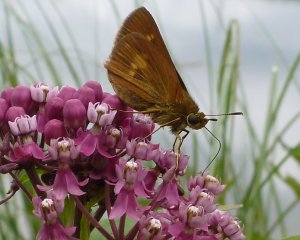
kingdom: Animalia
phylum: Arthropoda
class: Insecta
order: Lepidoptera
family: Hesperiidae
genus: Euphyes
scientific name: Euphyes conspicua
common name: Black Dash
